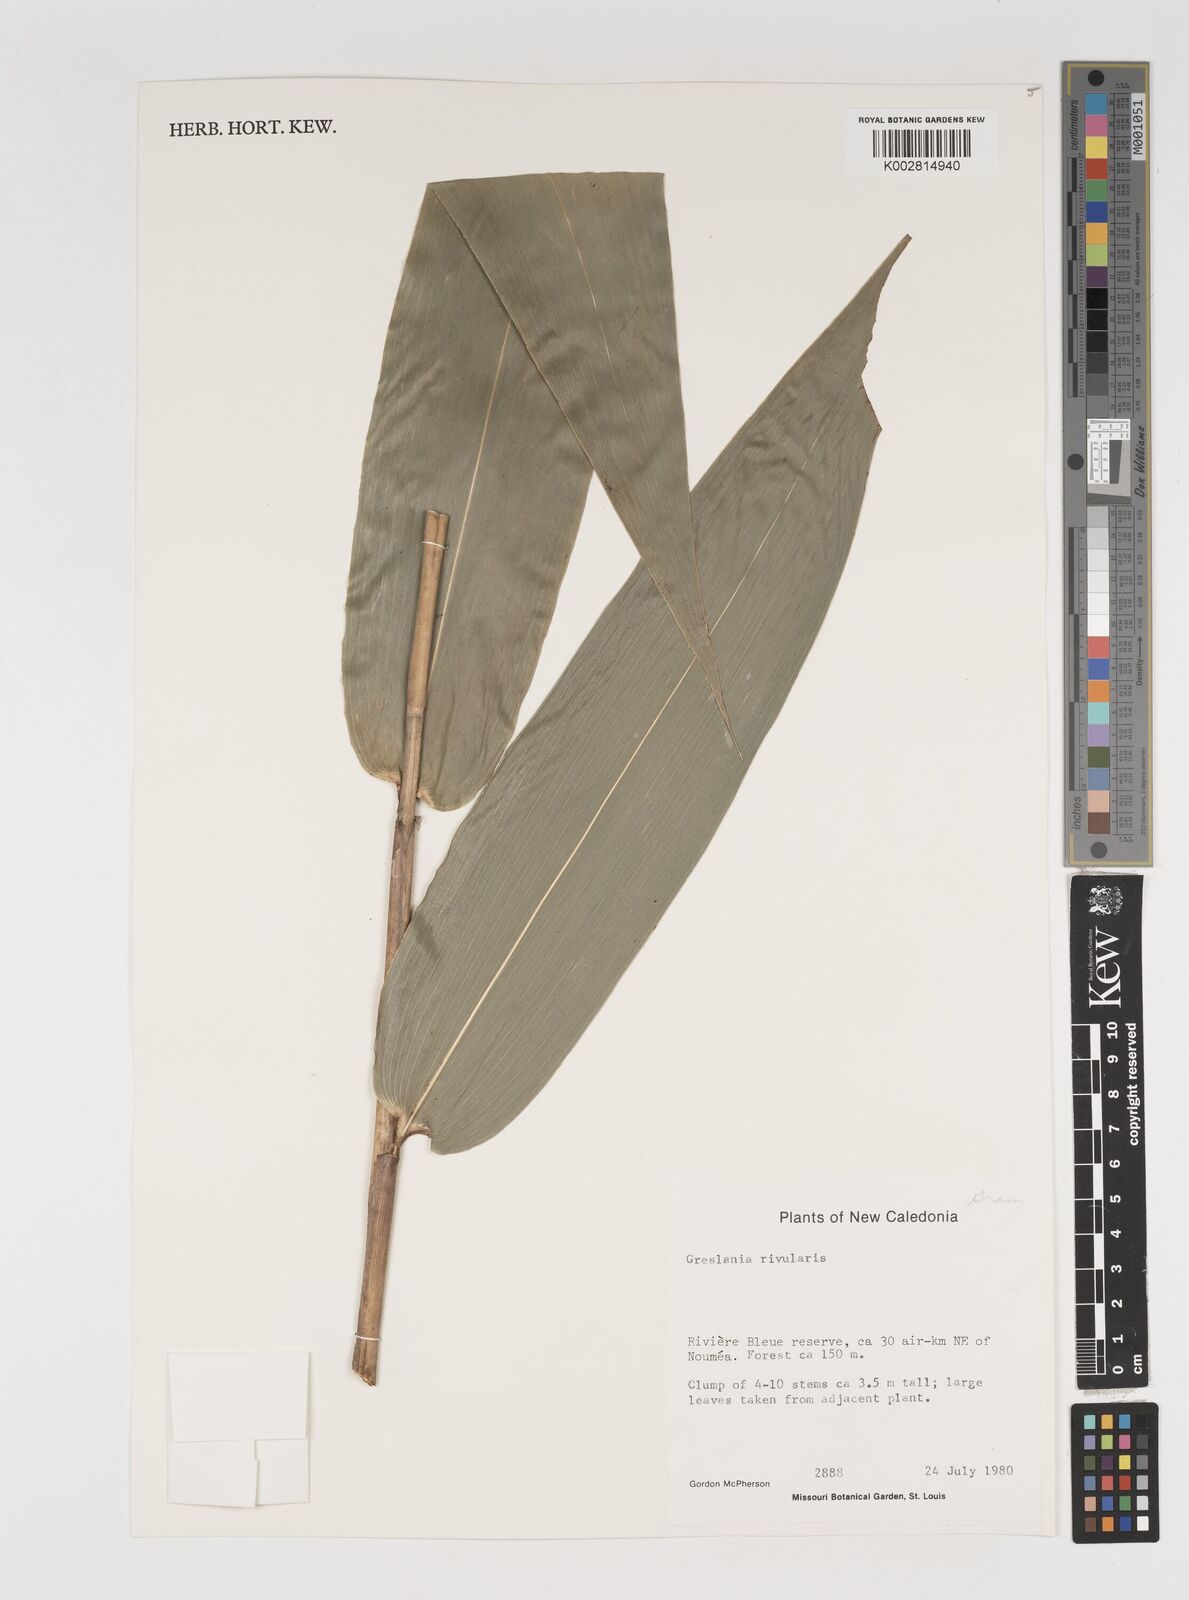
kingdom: Plantae
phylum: Tracheophyta
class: Liliopsida
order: Poales
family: Poaceae
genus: Greslania
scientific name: Greslania rivularis
